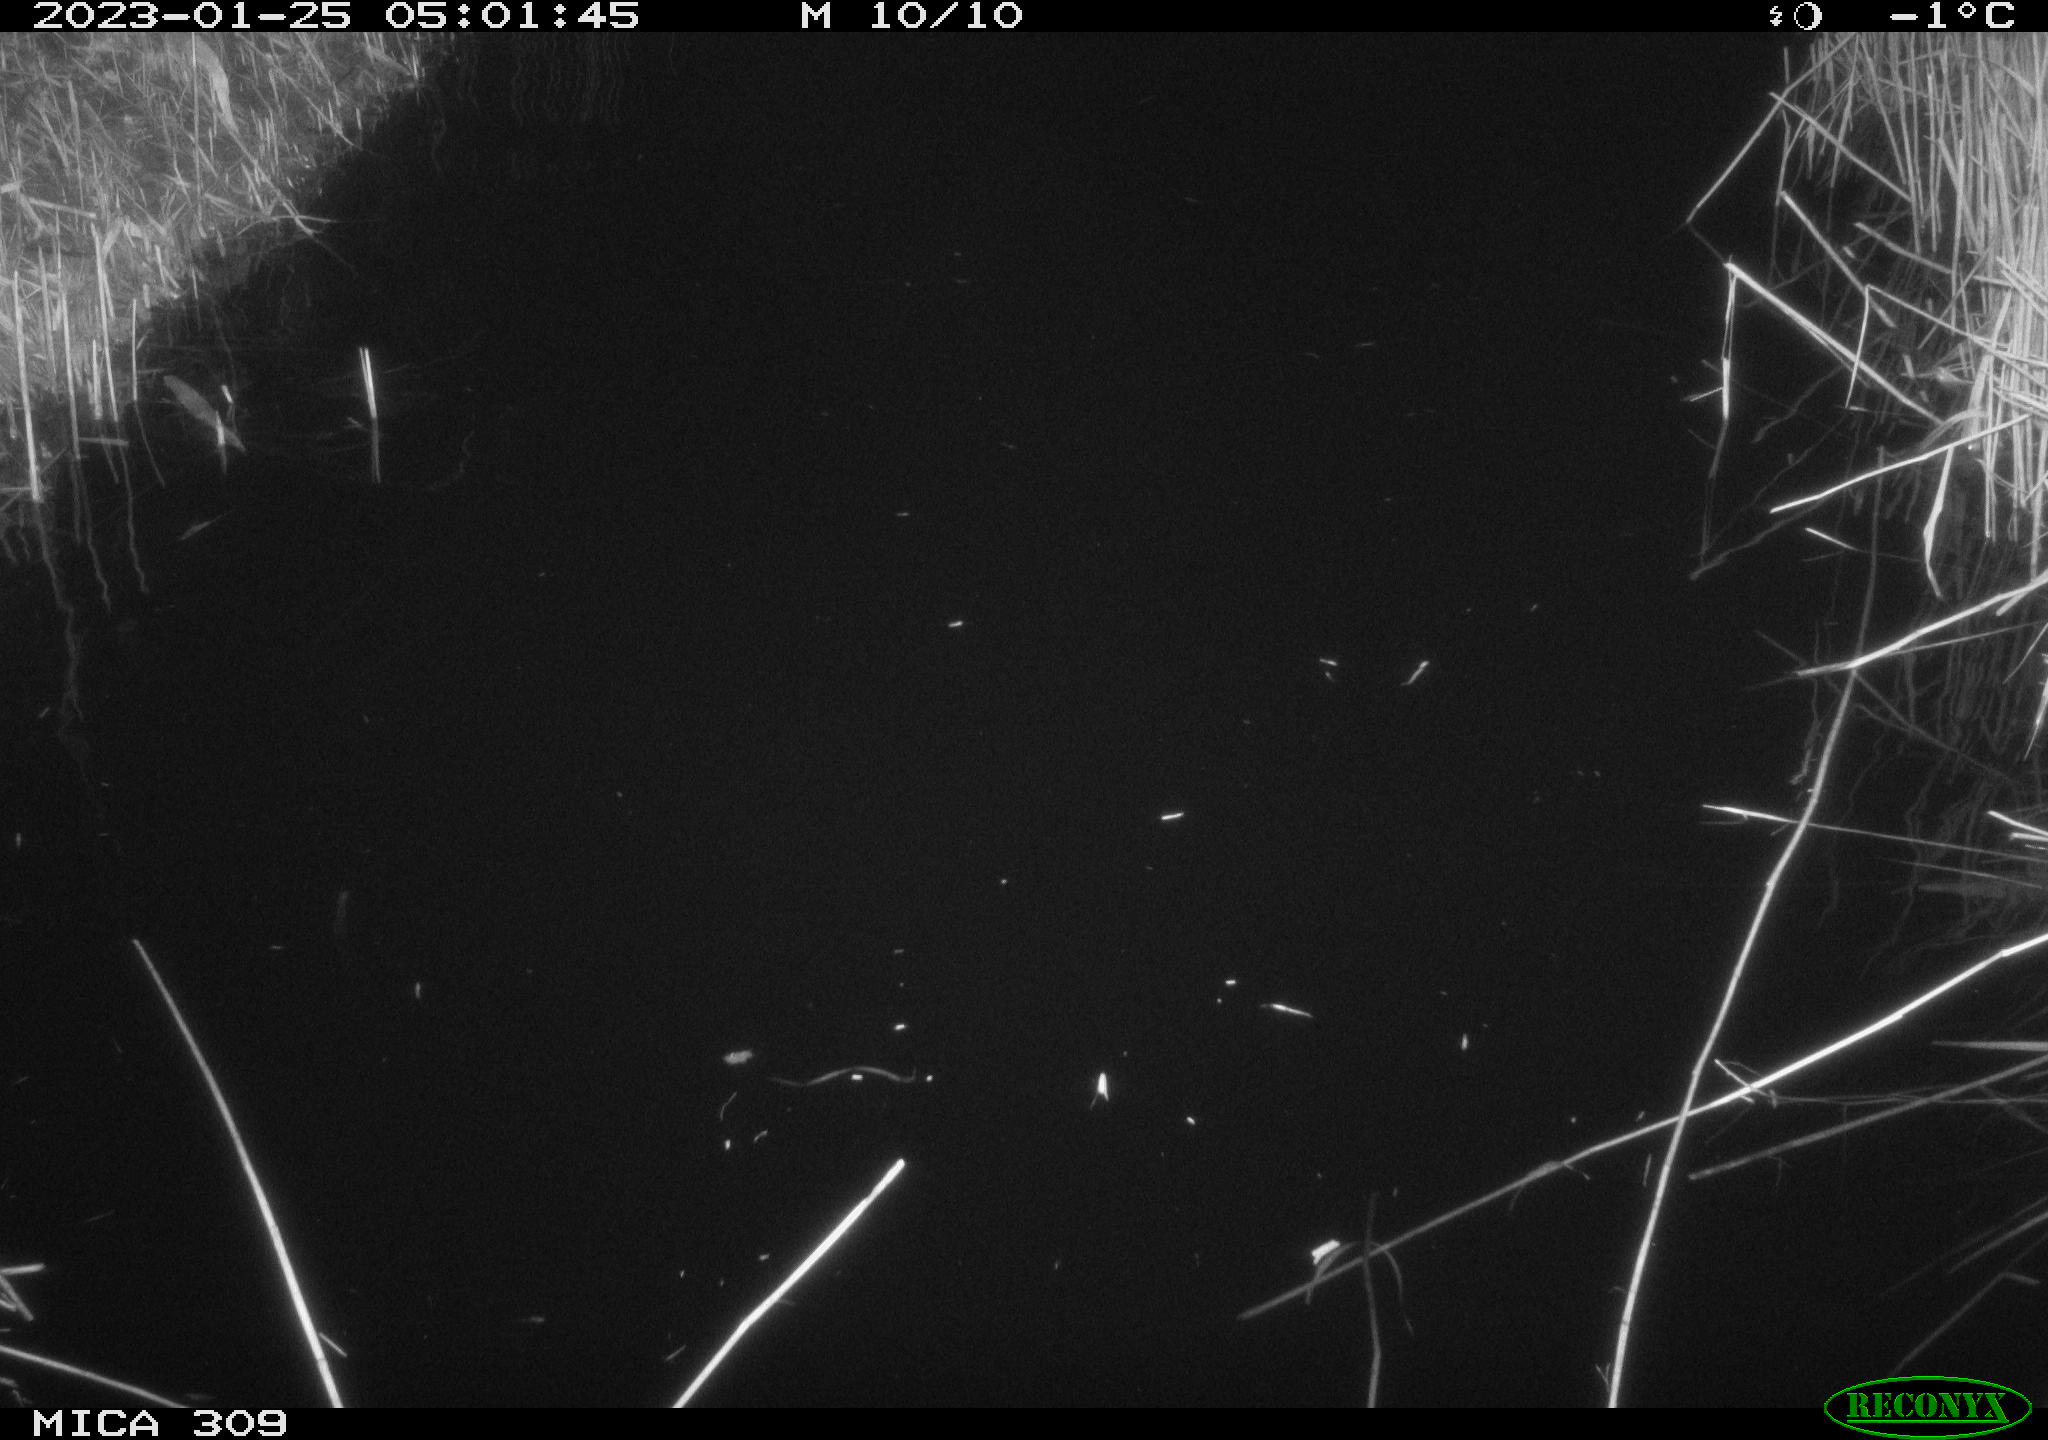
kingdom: Animalia
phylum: Chordata
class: Mammalia
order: Rodentia
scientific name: Rodentia
